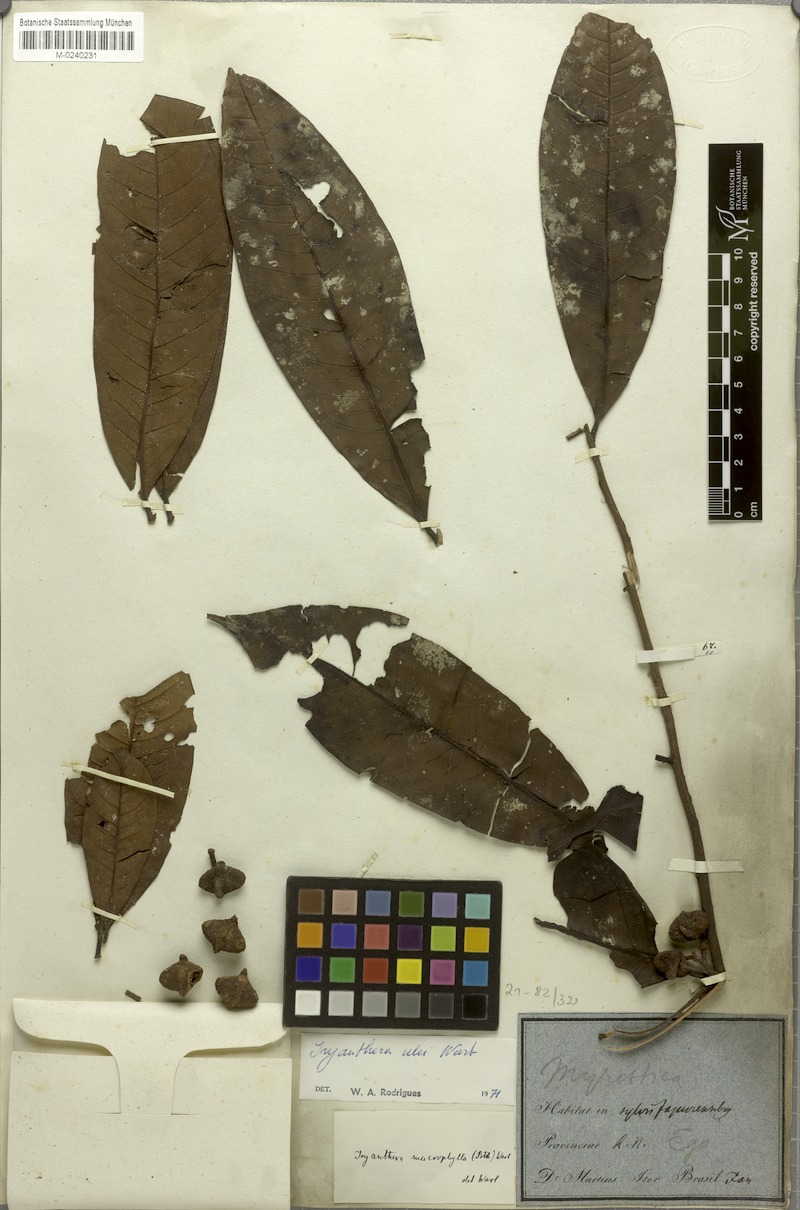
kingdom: Plantae
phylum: Tracheophyta
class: Magnoliopsida
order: Magnoliales
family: Myristicaceae
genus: Iryanthera
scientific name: Iryanthera hostmannii
